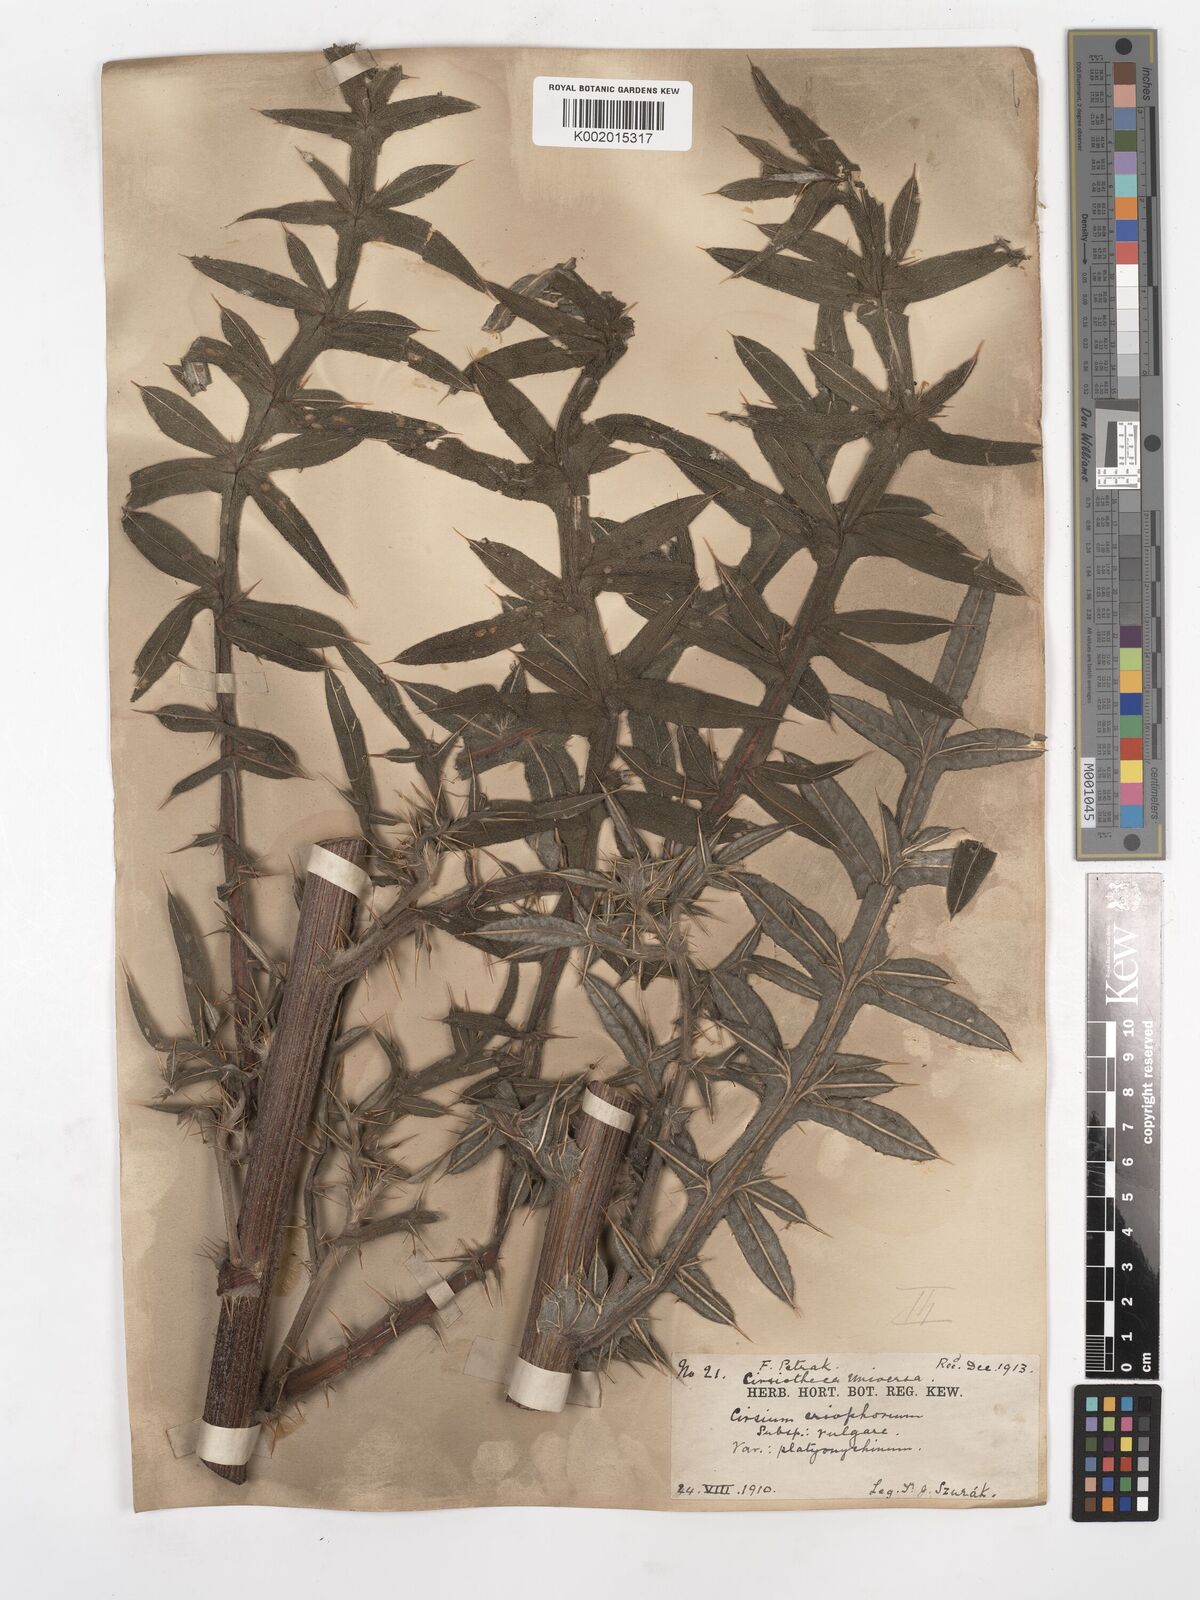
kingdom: Plantae
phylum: Tracheophyta
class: Magnoliopsida
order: Asterales
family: Asteraceae
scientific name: Asteraceae
